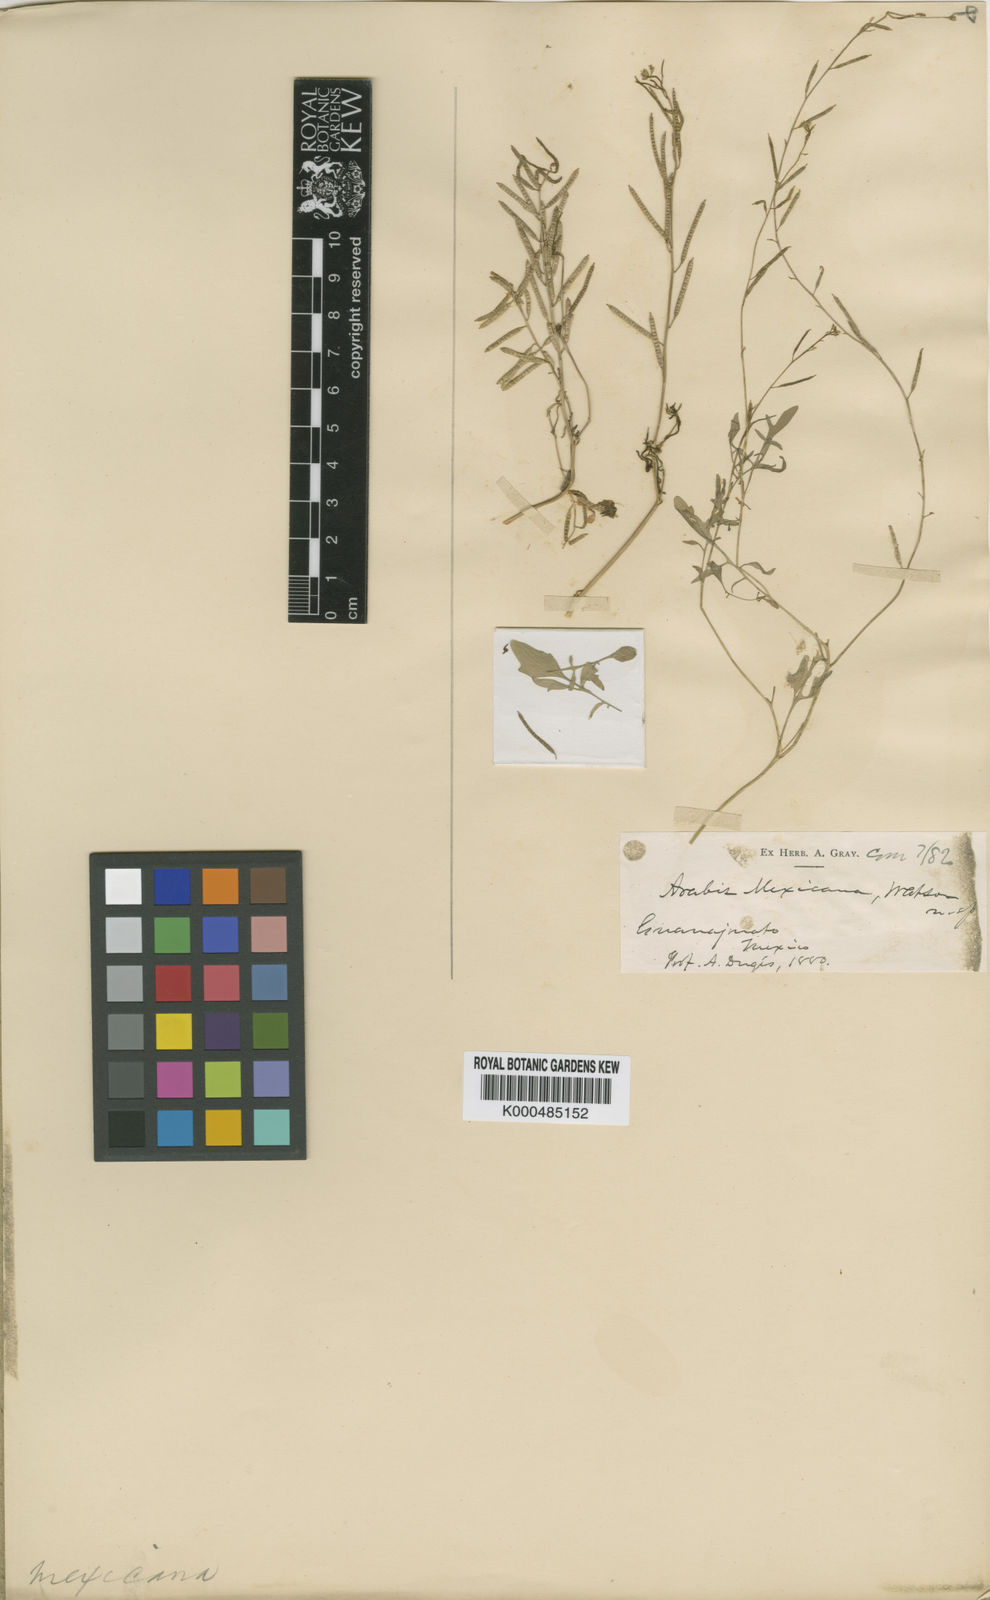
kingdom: Plantae
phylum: Tracheophyta
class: Magnoliopsida
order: Brassicales
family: Brassicaceae
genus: Planodes
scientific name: Planodes mexicana
